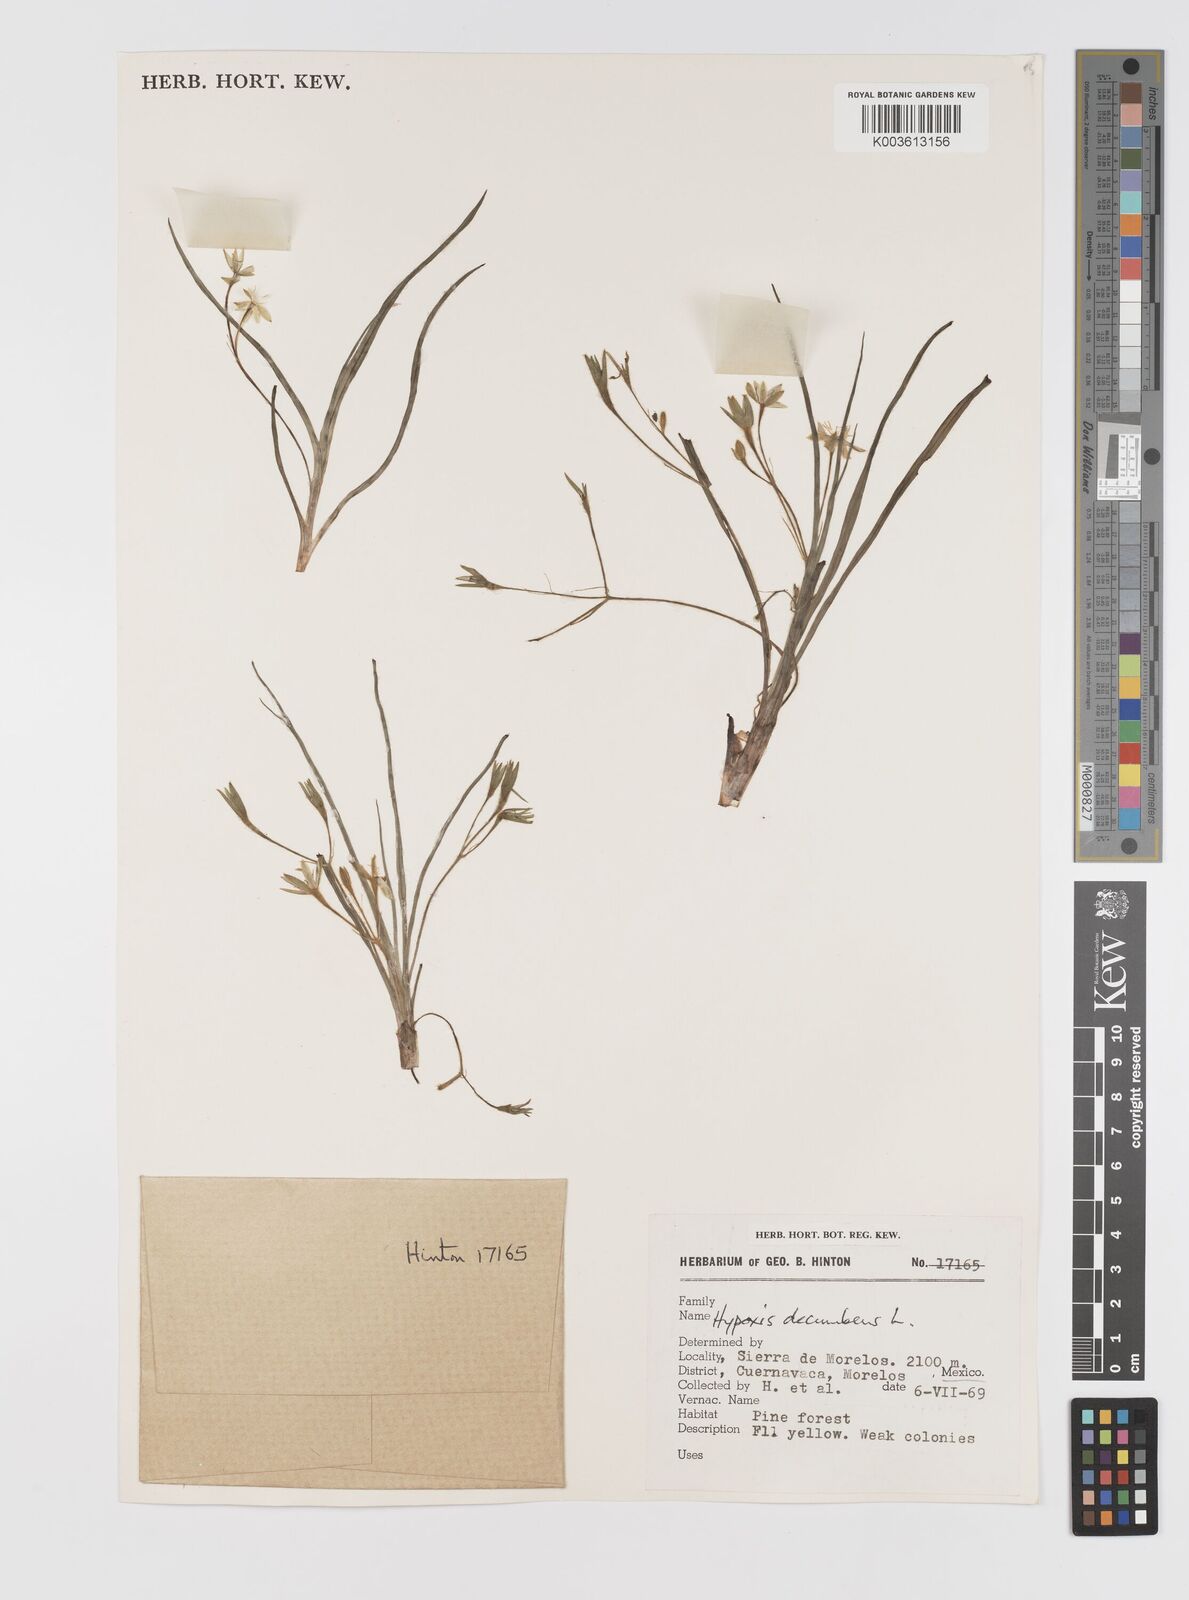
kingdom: Plantae
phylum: Tracheophyta
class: Liliopsida
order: Asparagales
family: Hypoxidaceae
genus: Hypoxis
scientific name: Hypoxis decumbens
